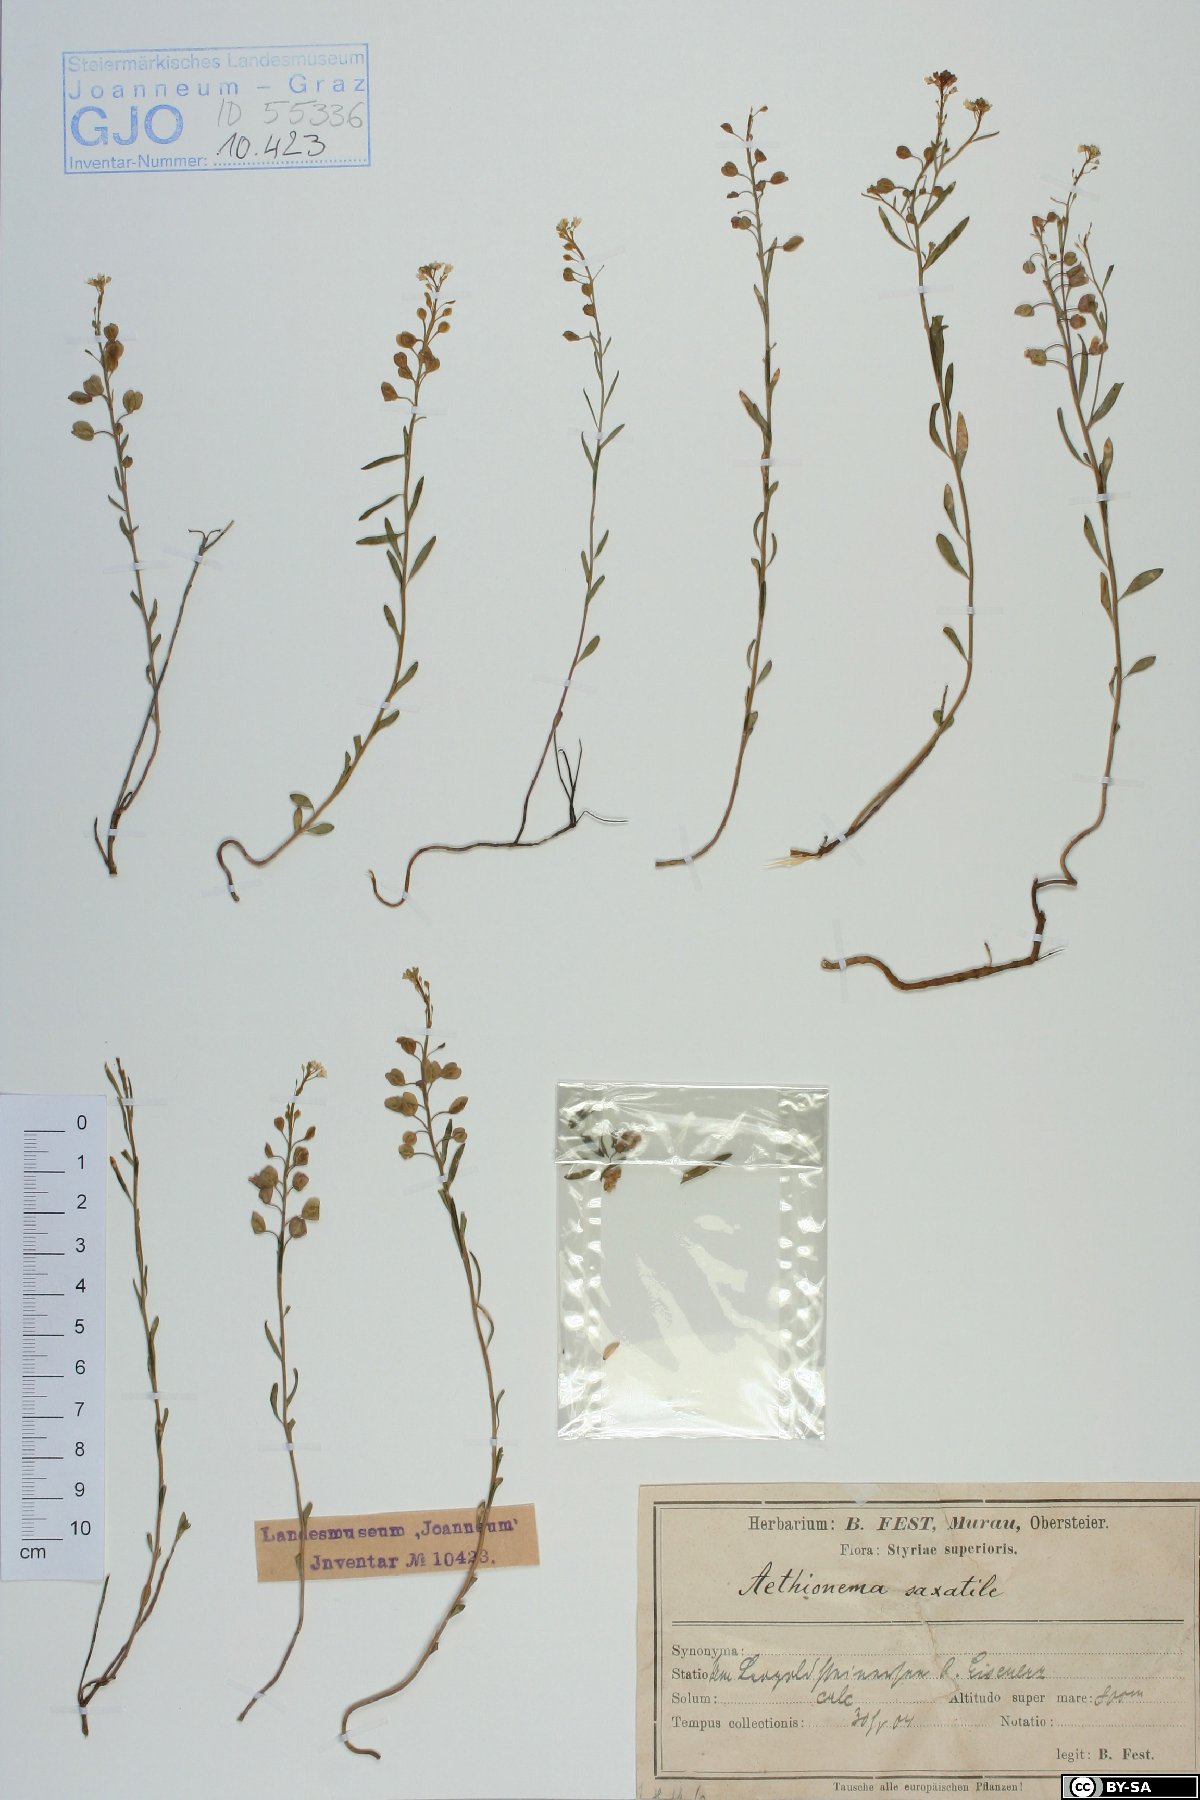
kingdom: Plantae
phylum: Tracheophyta
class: Magnoliopsida
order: Brassicales
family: Brassicaceae
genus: Aethionema
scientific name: Aethionema saxatile
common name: Burnt candytuft
